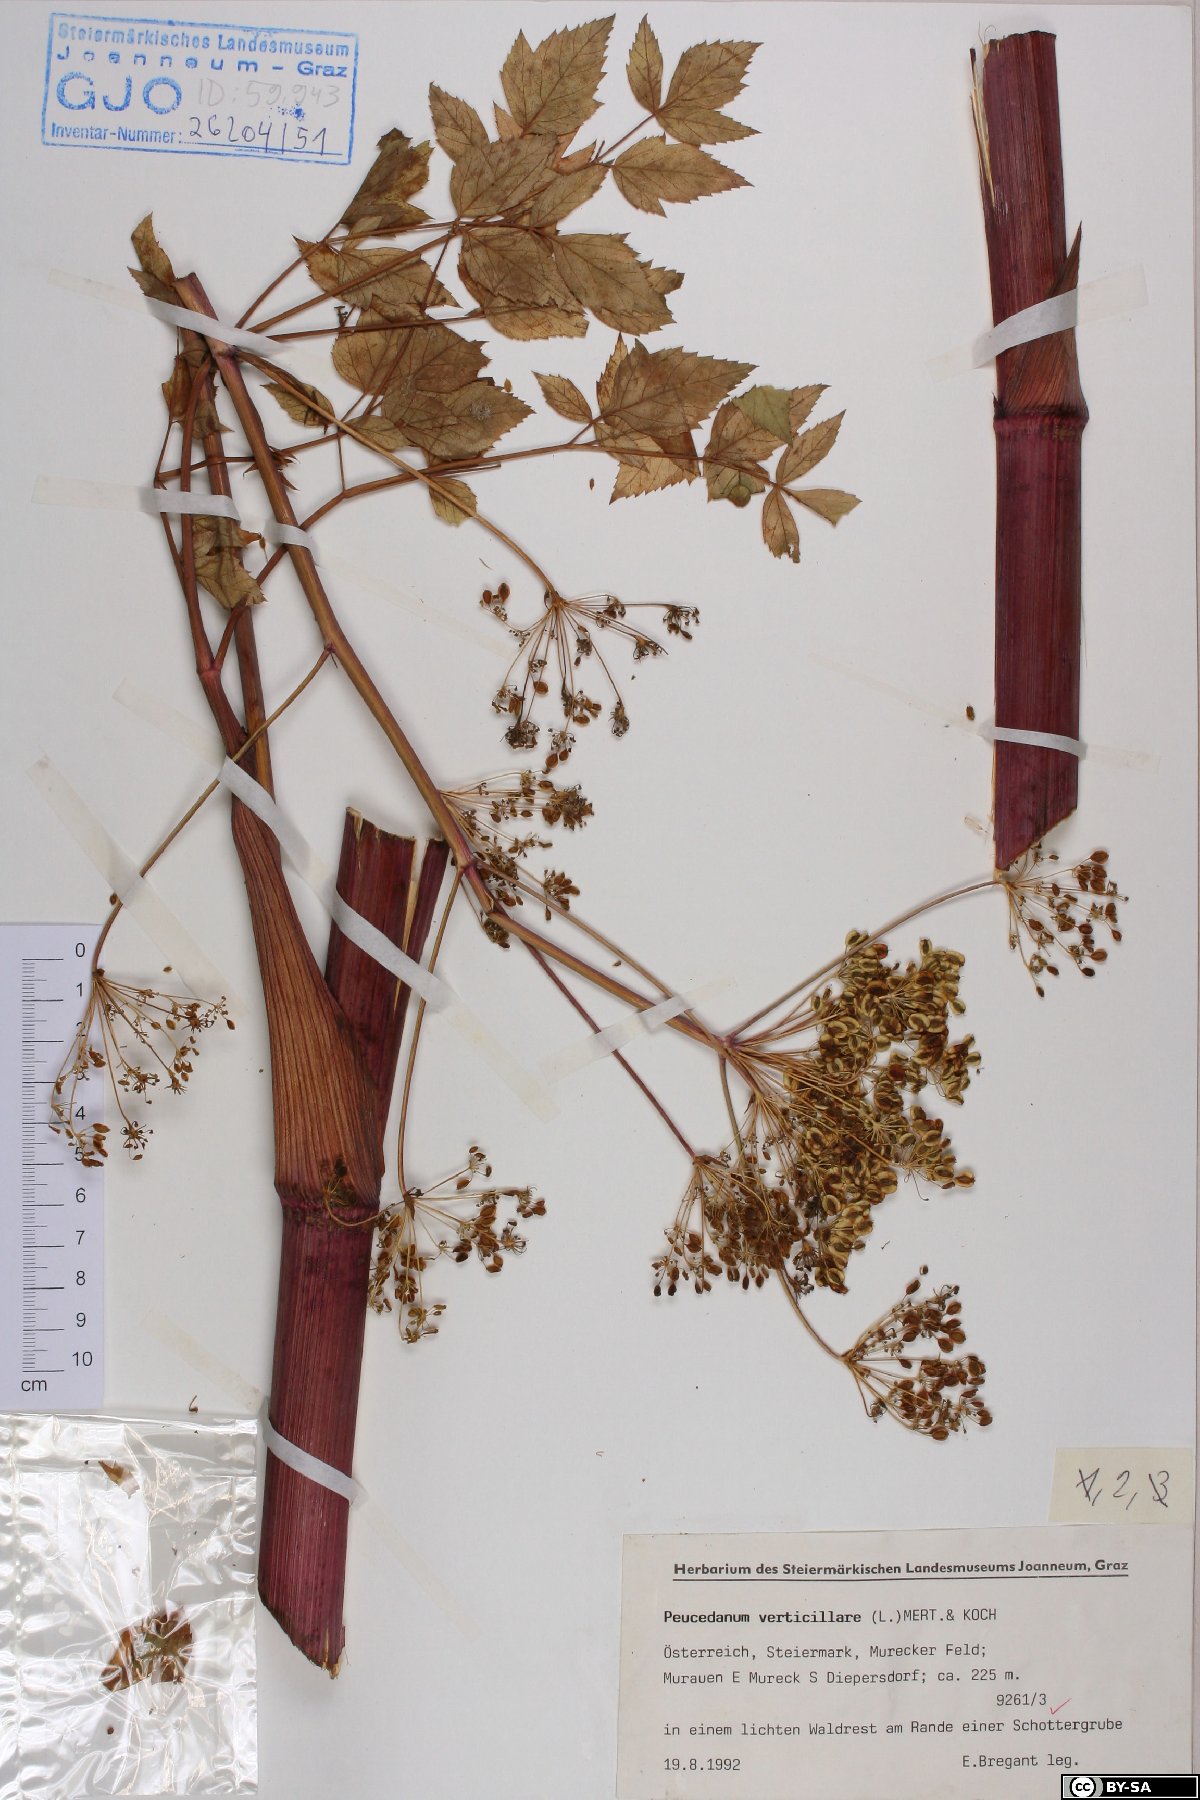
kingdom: Plantae
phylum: Tracheophyta
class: Magnoliopsida
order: Apiales
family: Apiaceae
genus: Tommasinia
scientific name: Tommasinia altissima
